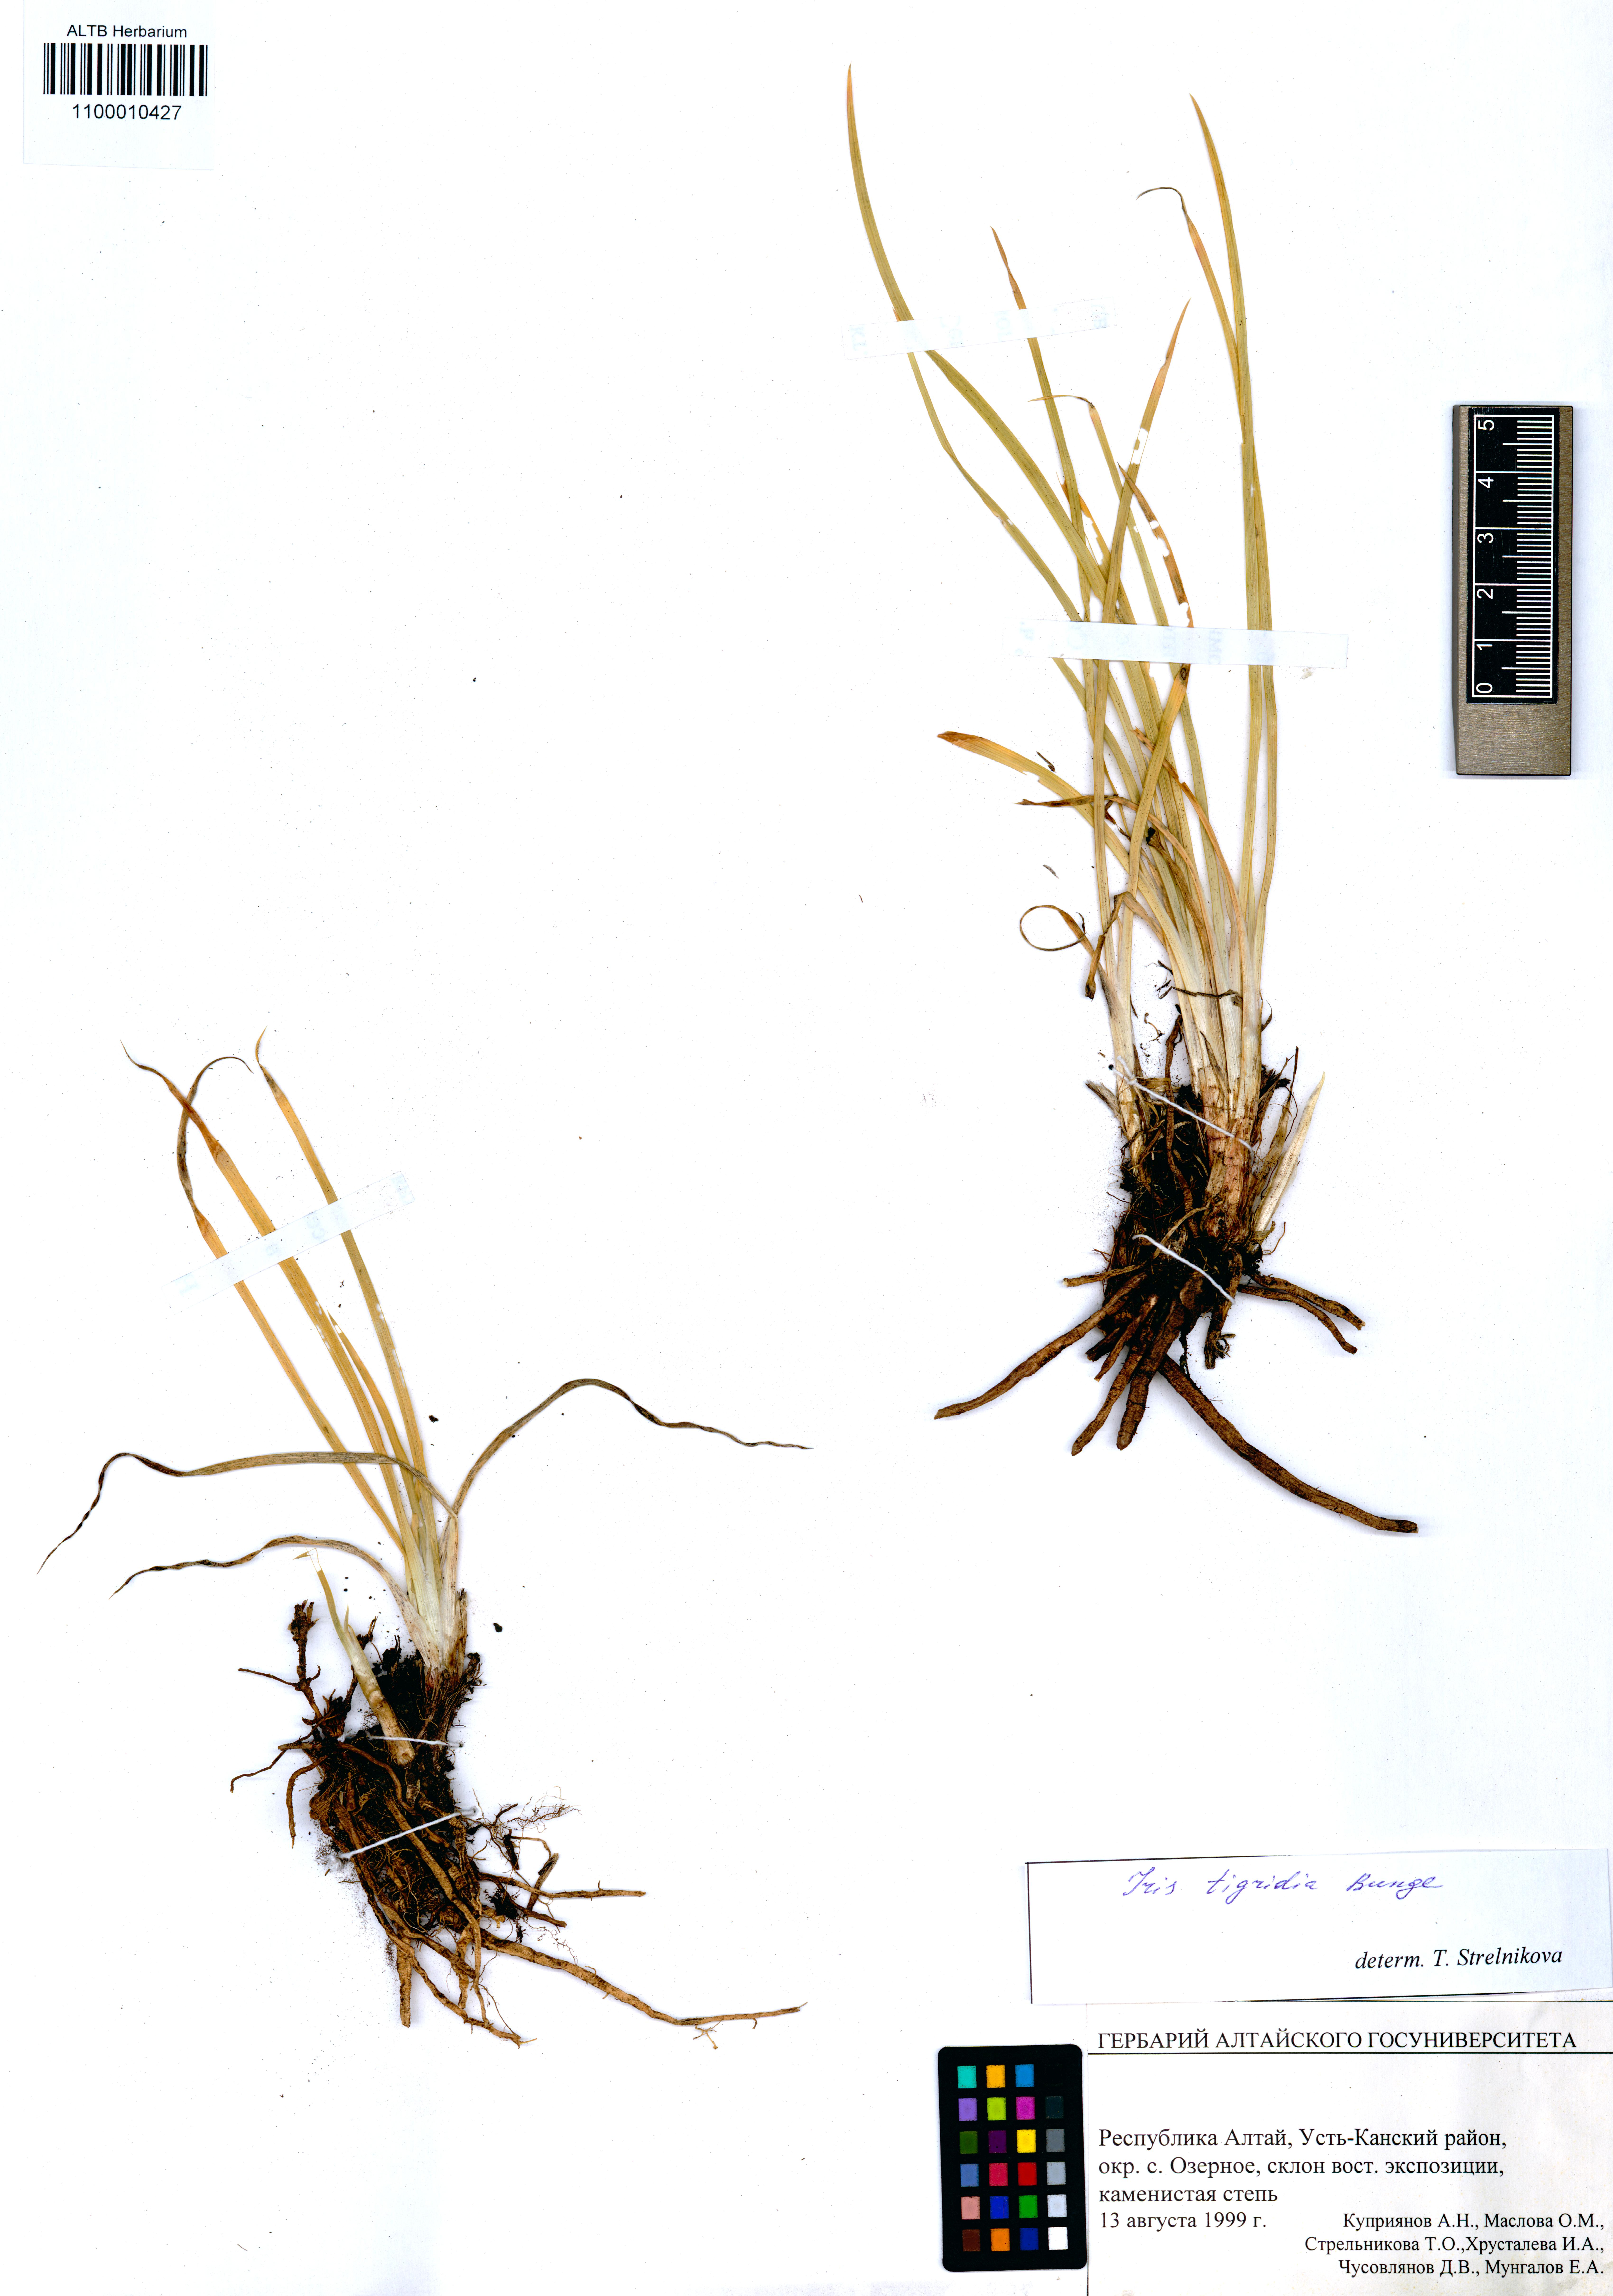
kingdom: Plantae
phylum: Tracheophyta
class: Liliopsida
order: Asparagales
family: Iridaceae
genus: Iris
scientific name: Iris tigridia
